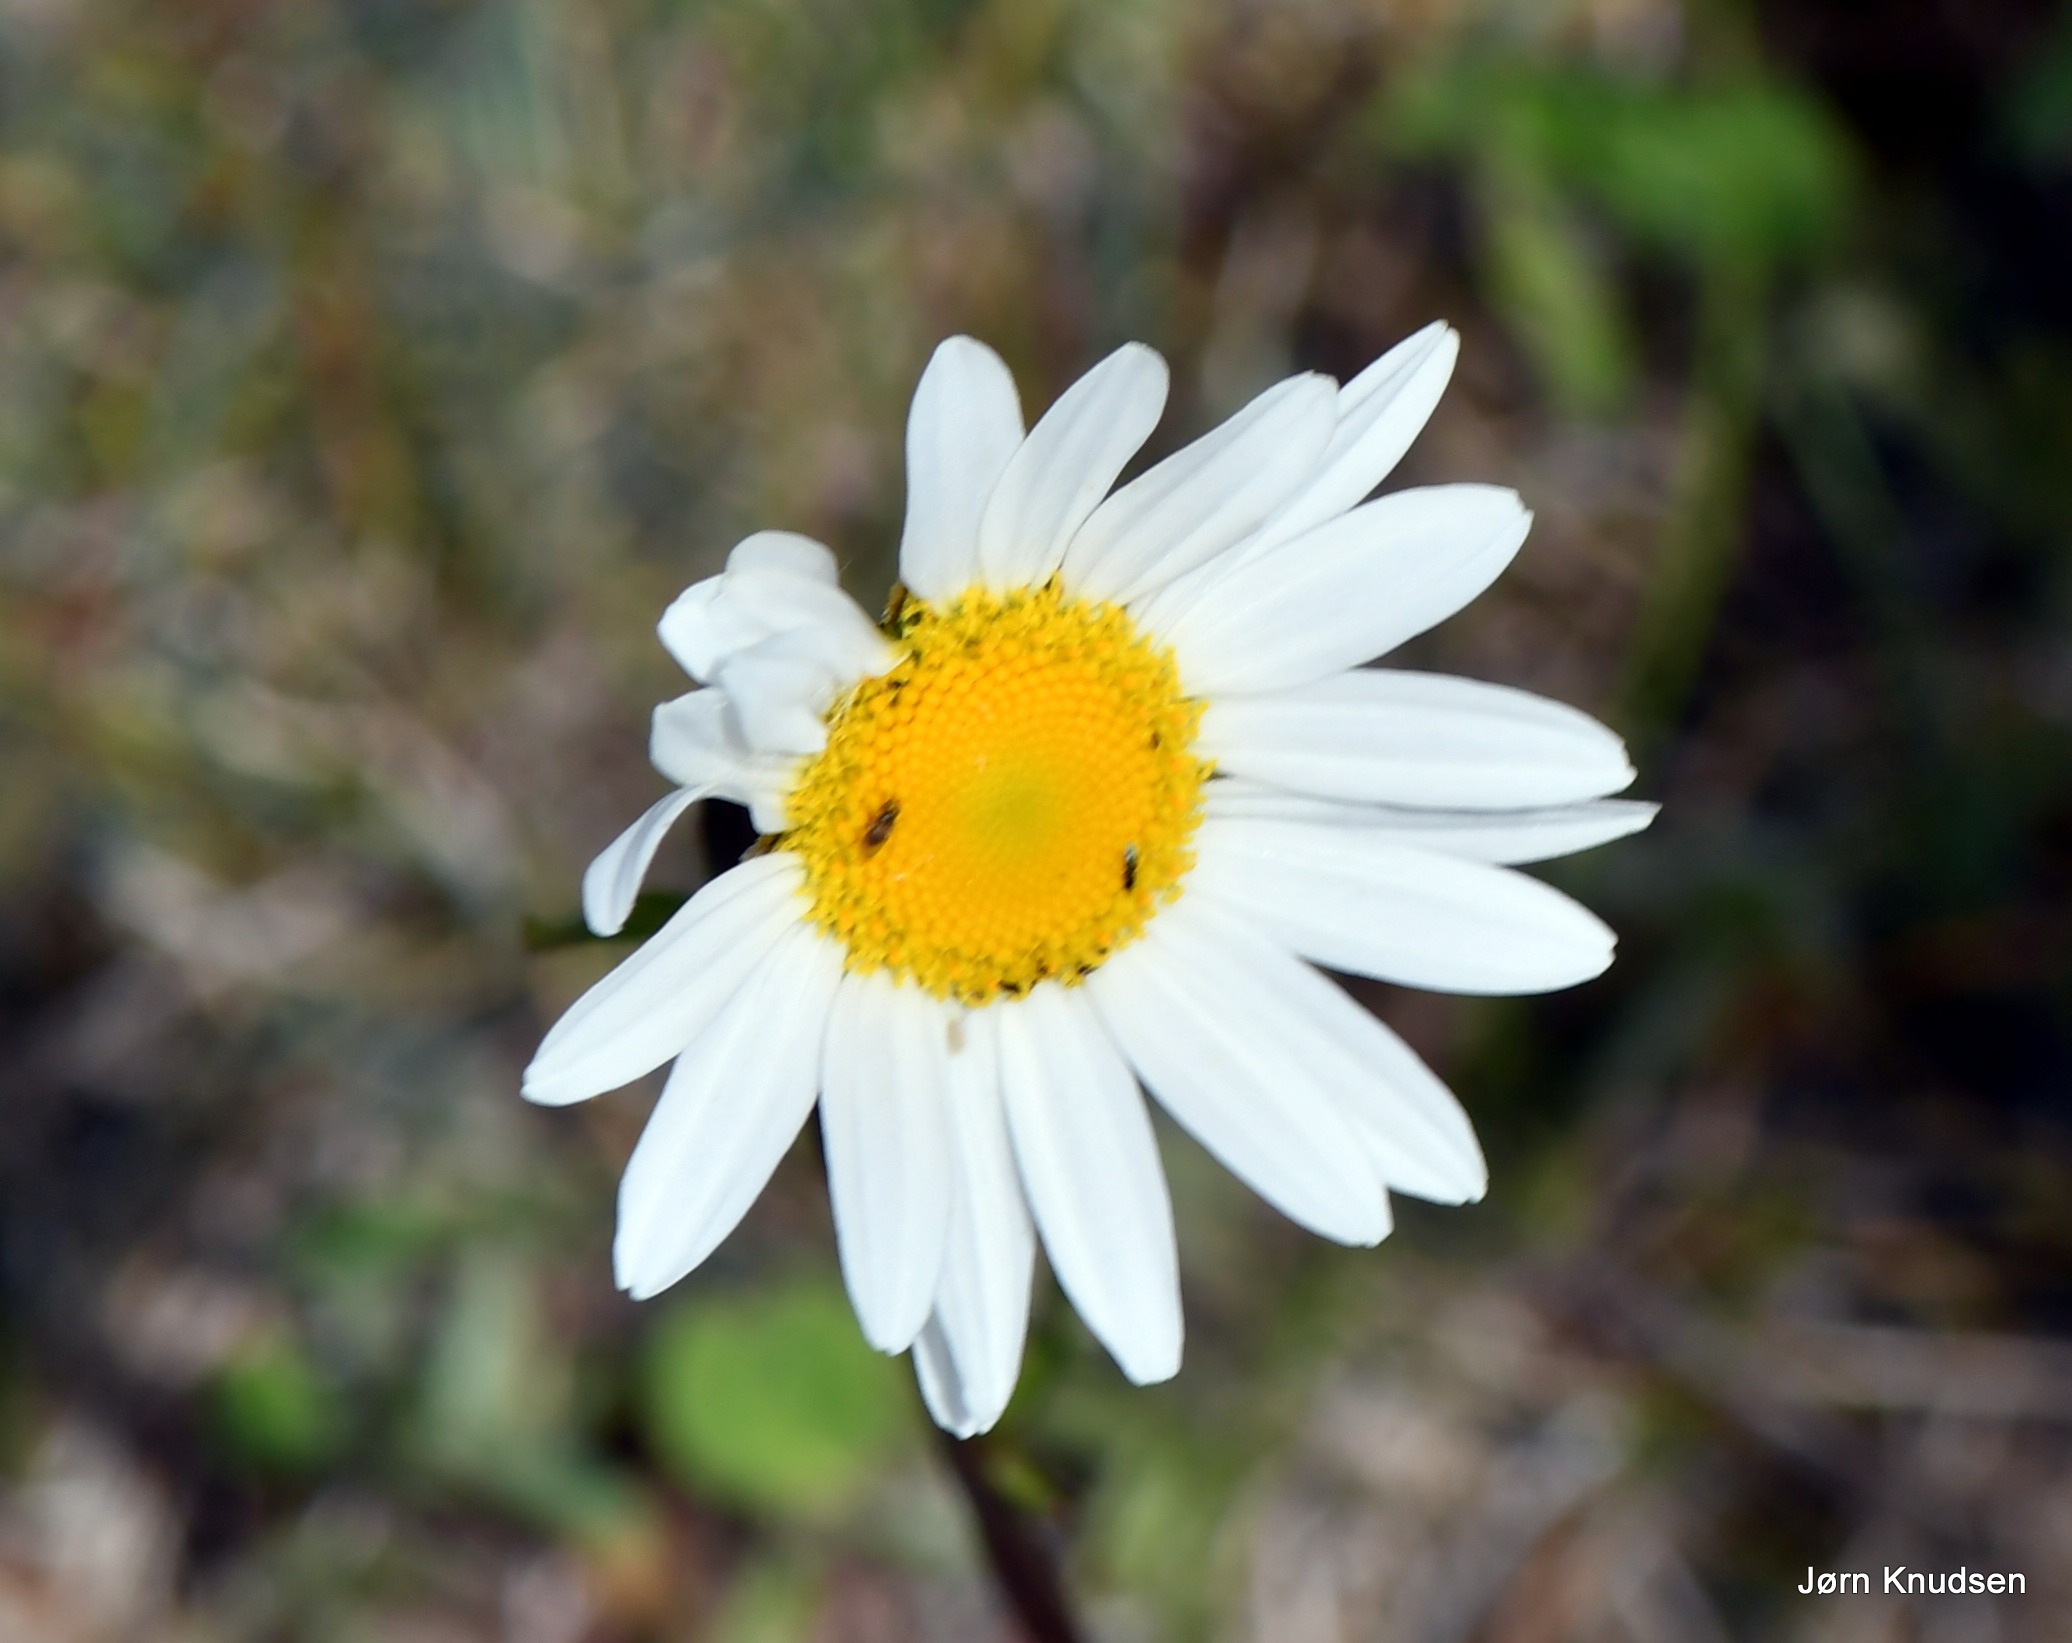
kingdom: Plantae
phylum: Tracheophyta
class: Magnoliopsida
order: Asterales
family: Asteraceae
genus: Leucanthemum
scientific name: Leucanthemum vulgare
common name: Hvid okseøje
